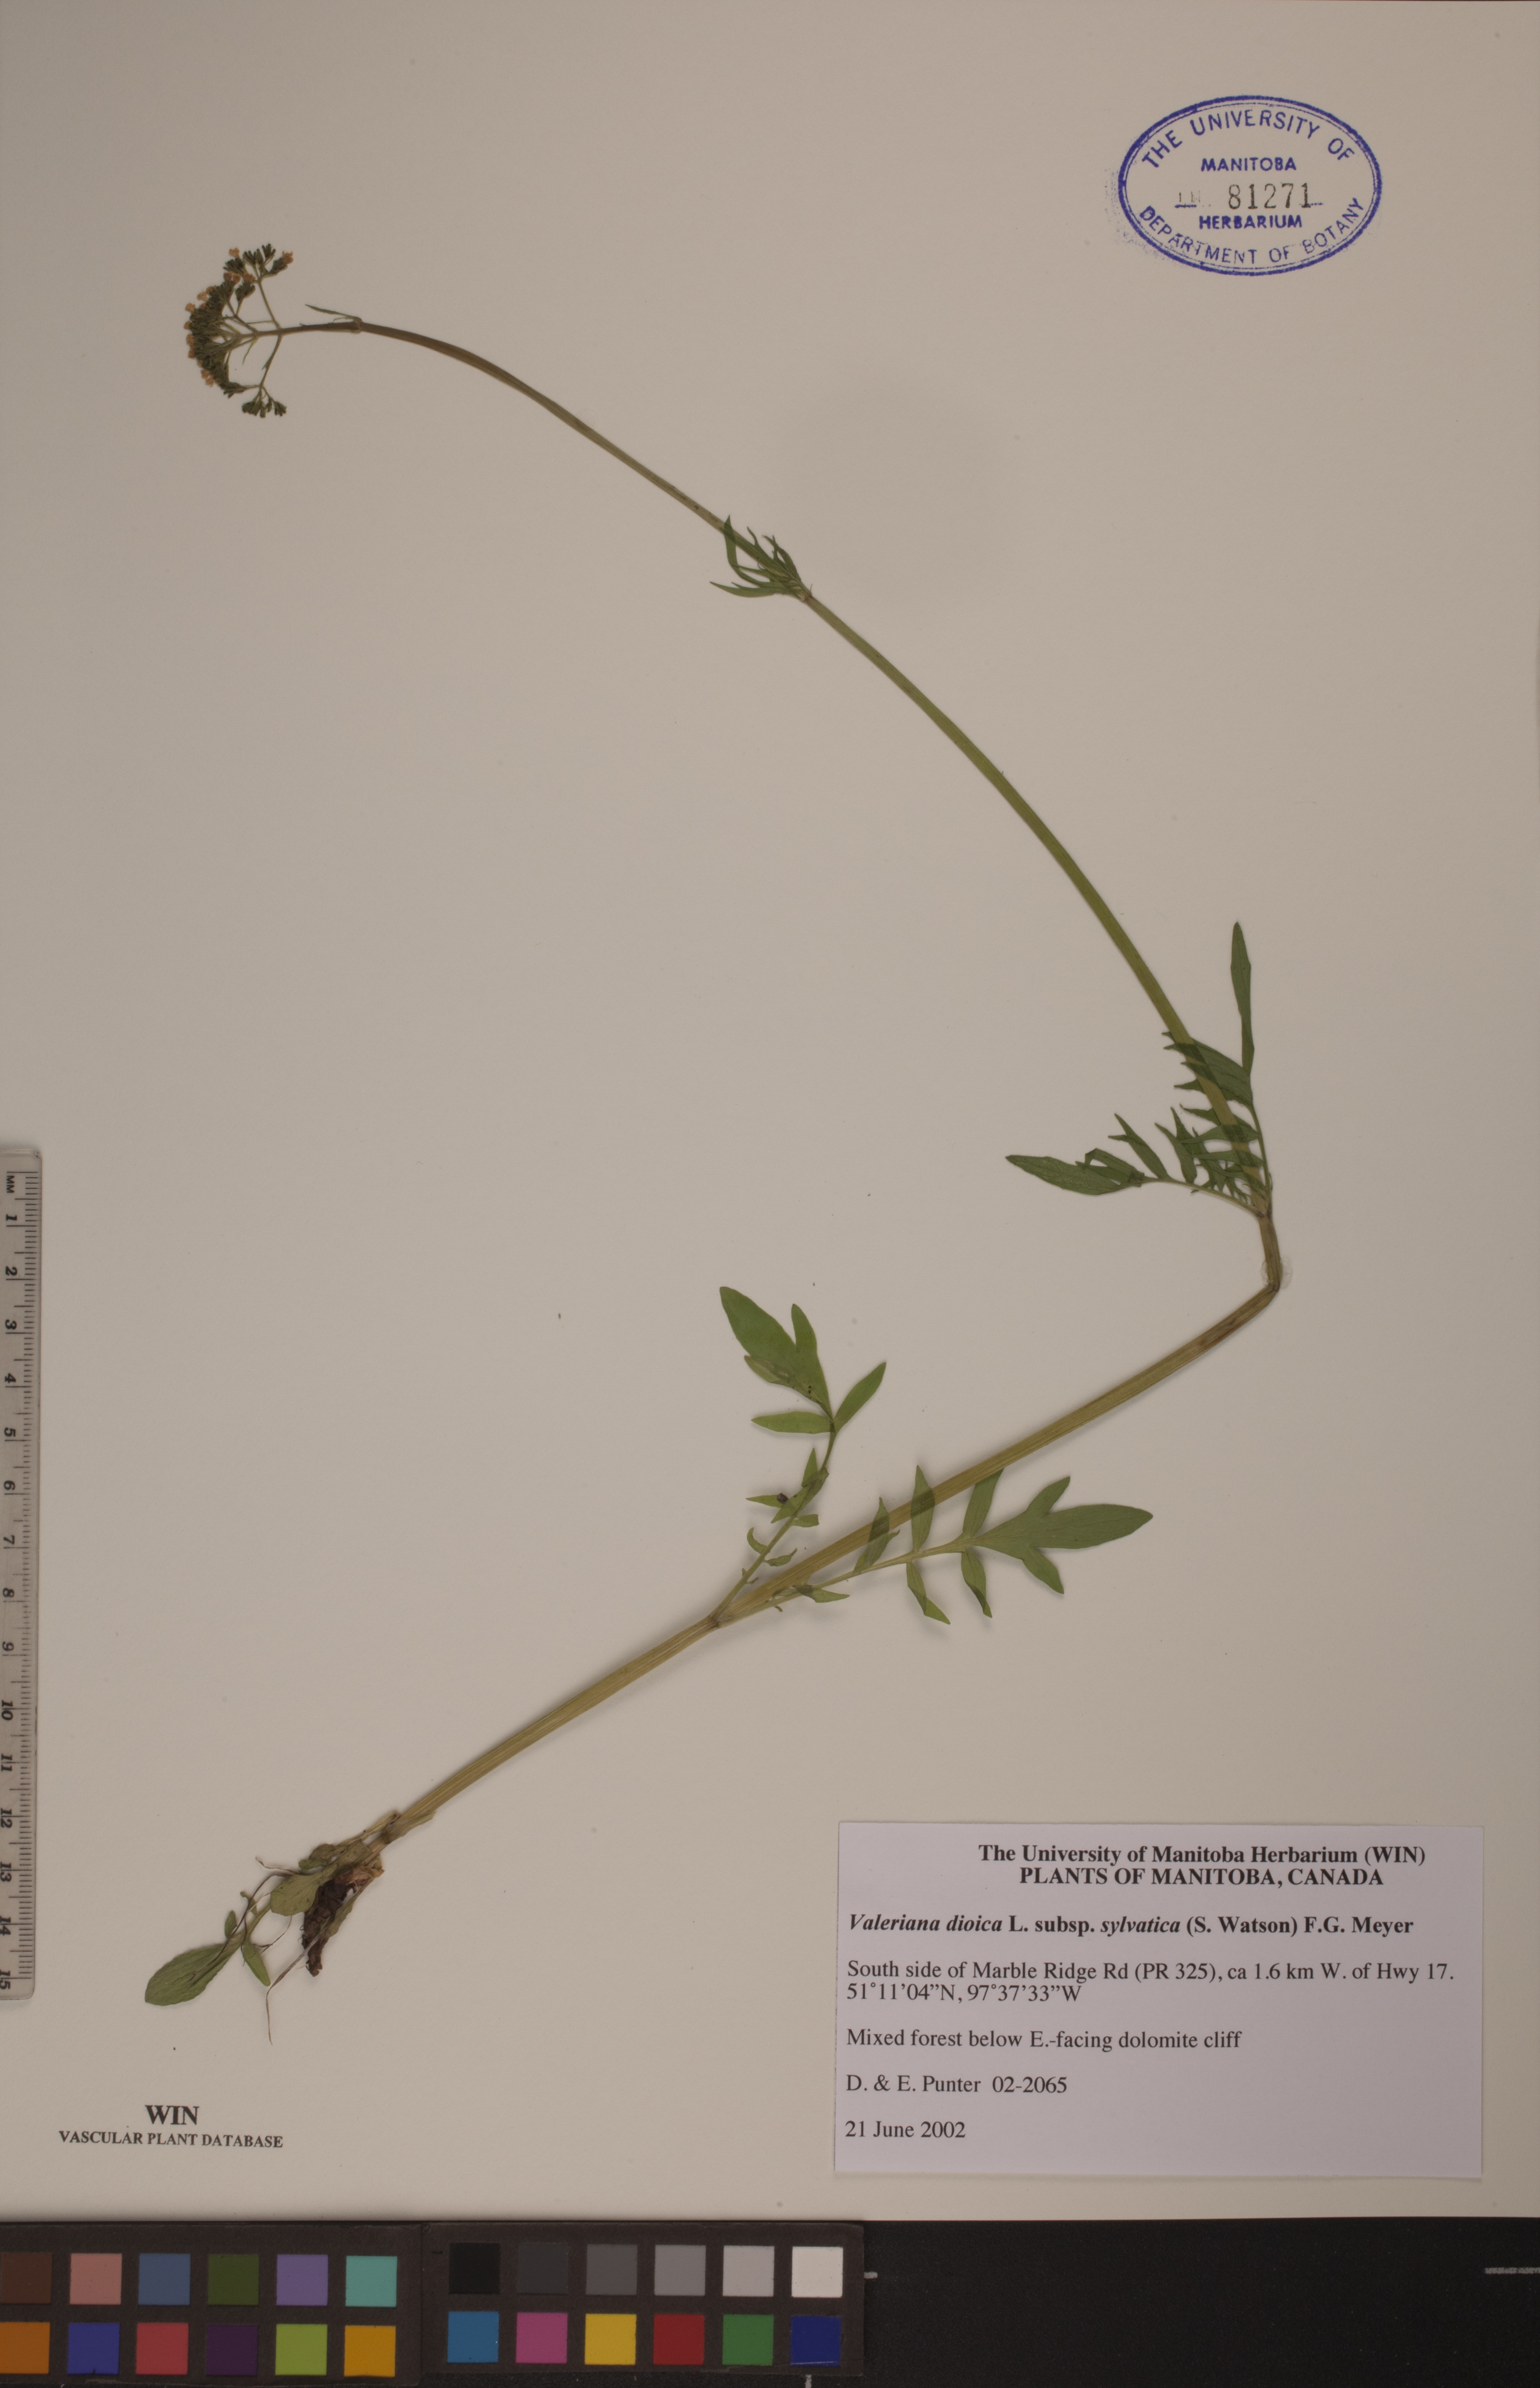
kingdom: Plantae
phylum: Tracheophyta
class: Magnoliopsida
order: Dipsacales
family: Caprifoliaceae
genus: Valeriana
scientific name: Valeriana dioica
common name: Marsh valerian
